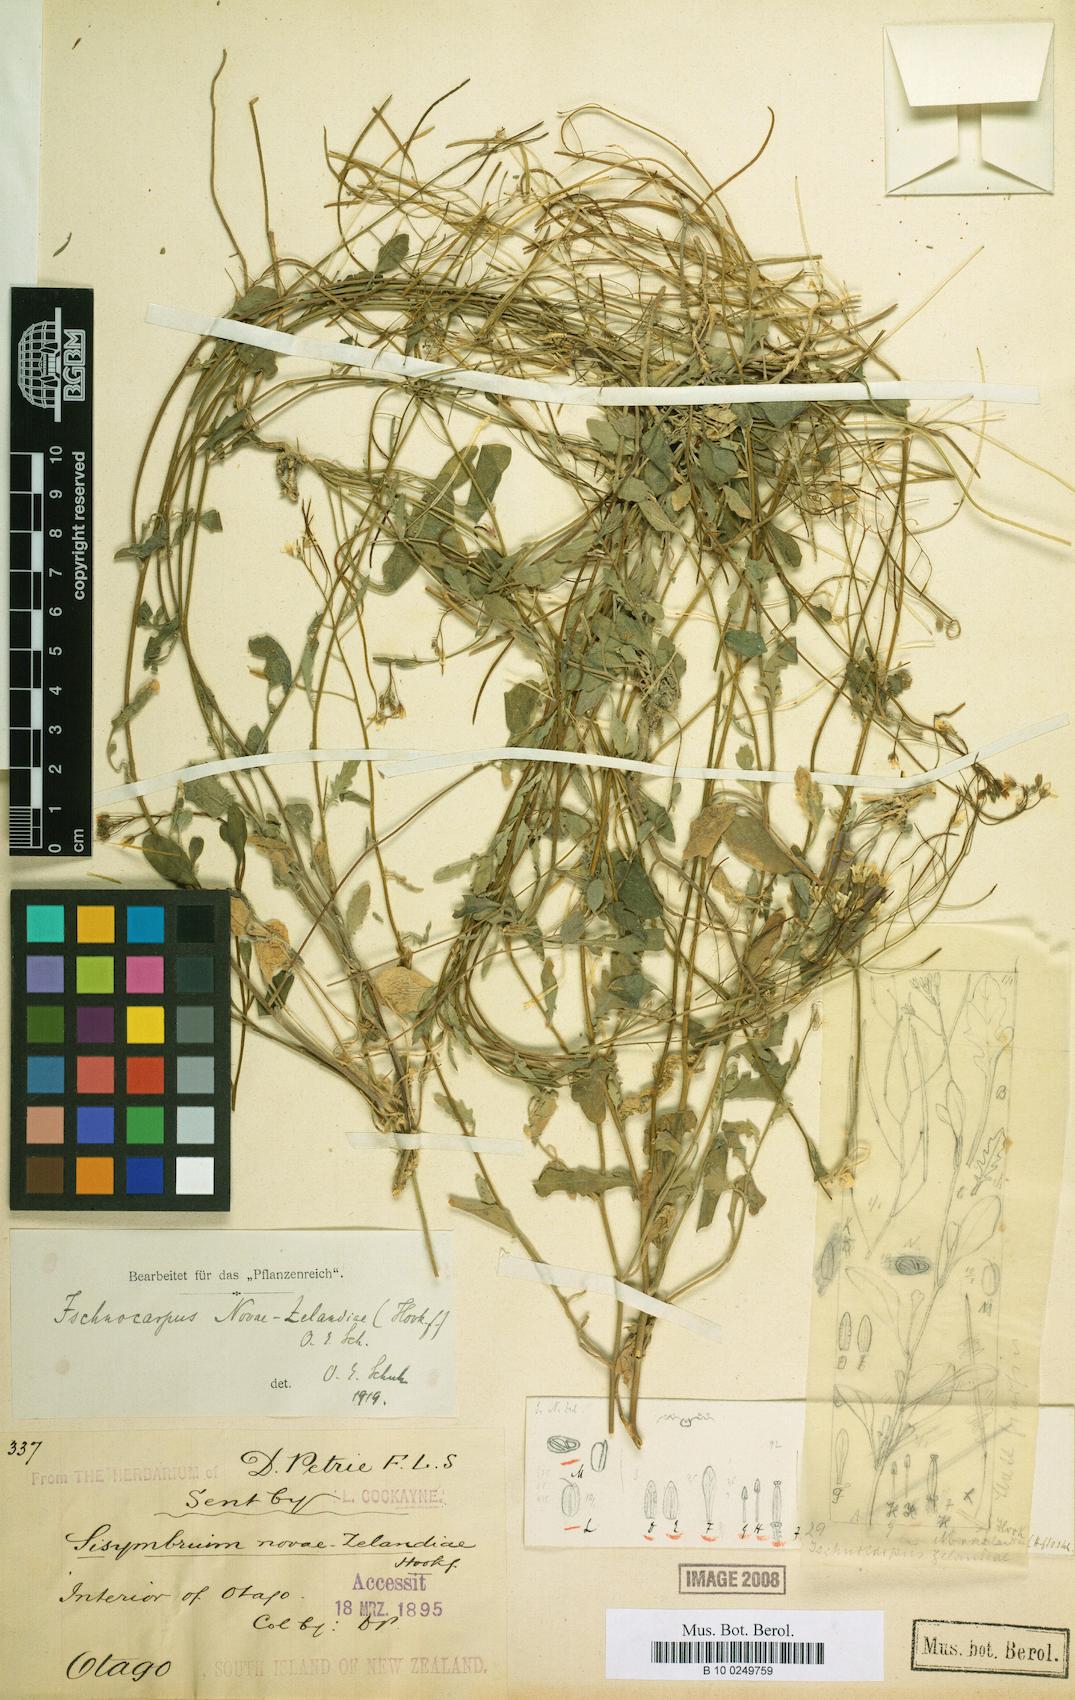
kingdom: Plantae
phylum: Tracheophyta
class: Magnoliopsida
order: Brassicales
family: Brassicaceae
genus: Pachycladon
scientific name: Pachycladon cheesmanii
